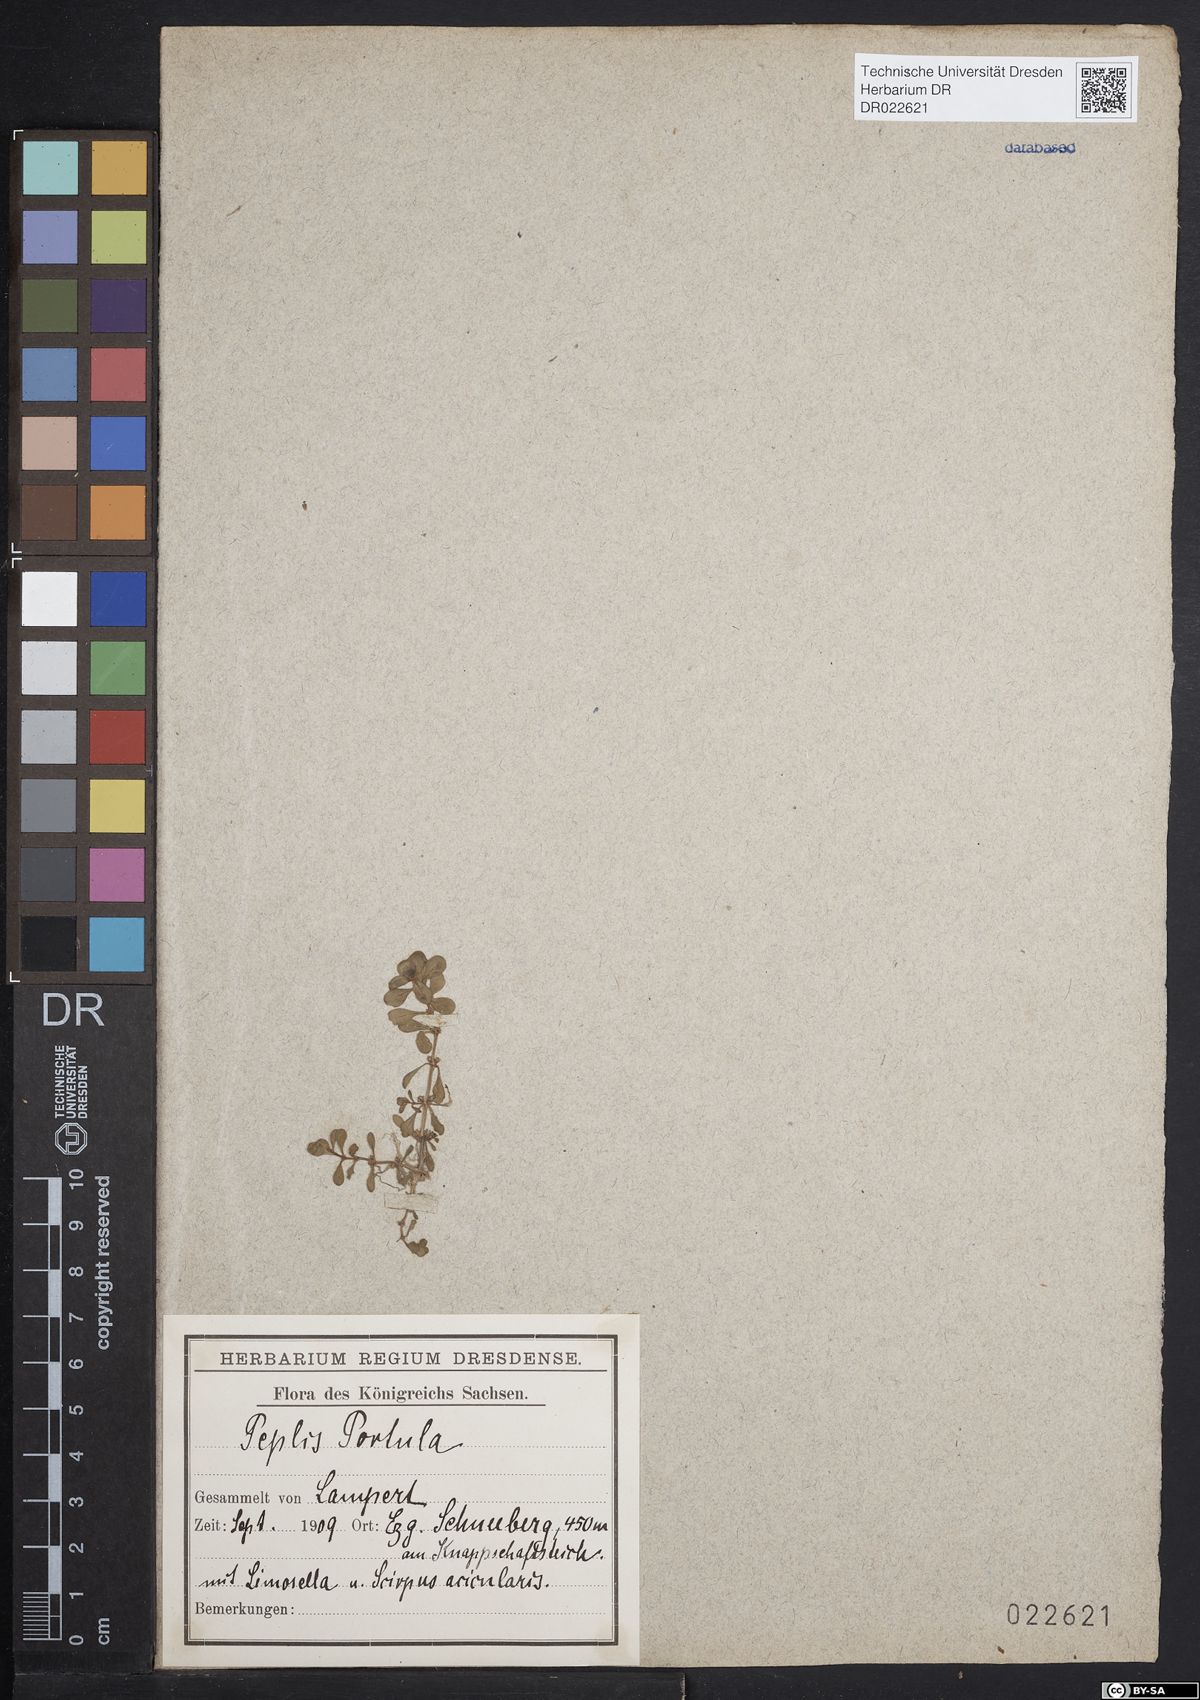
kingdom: Plantae
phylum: Tracheophyta
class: Magnoliopsida
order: Myrtales
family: Lythraceae
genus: Lythrum
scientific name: Lythrum portula
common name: Water purslane
